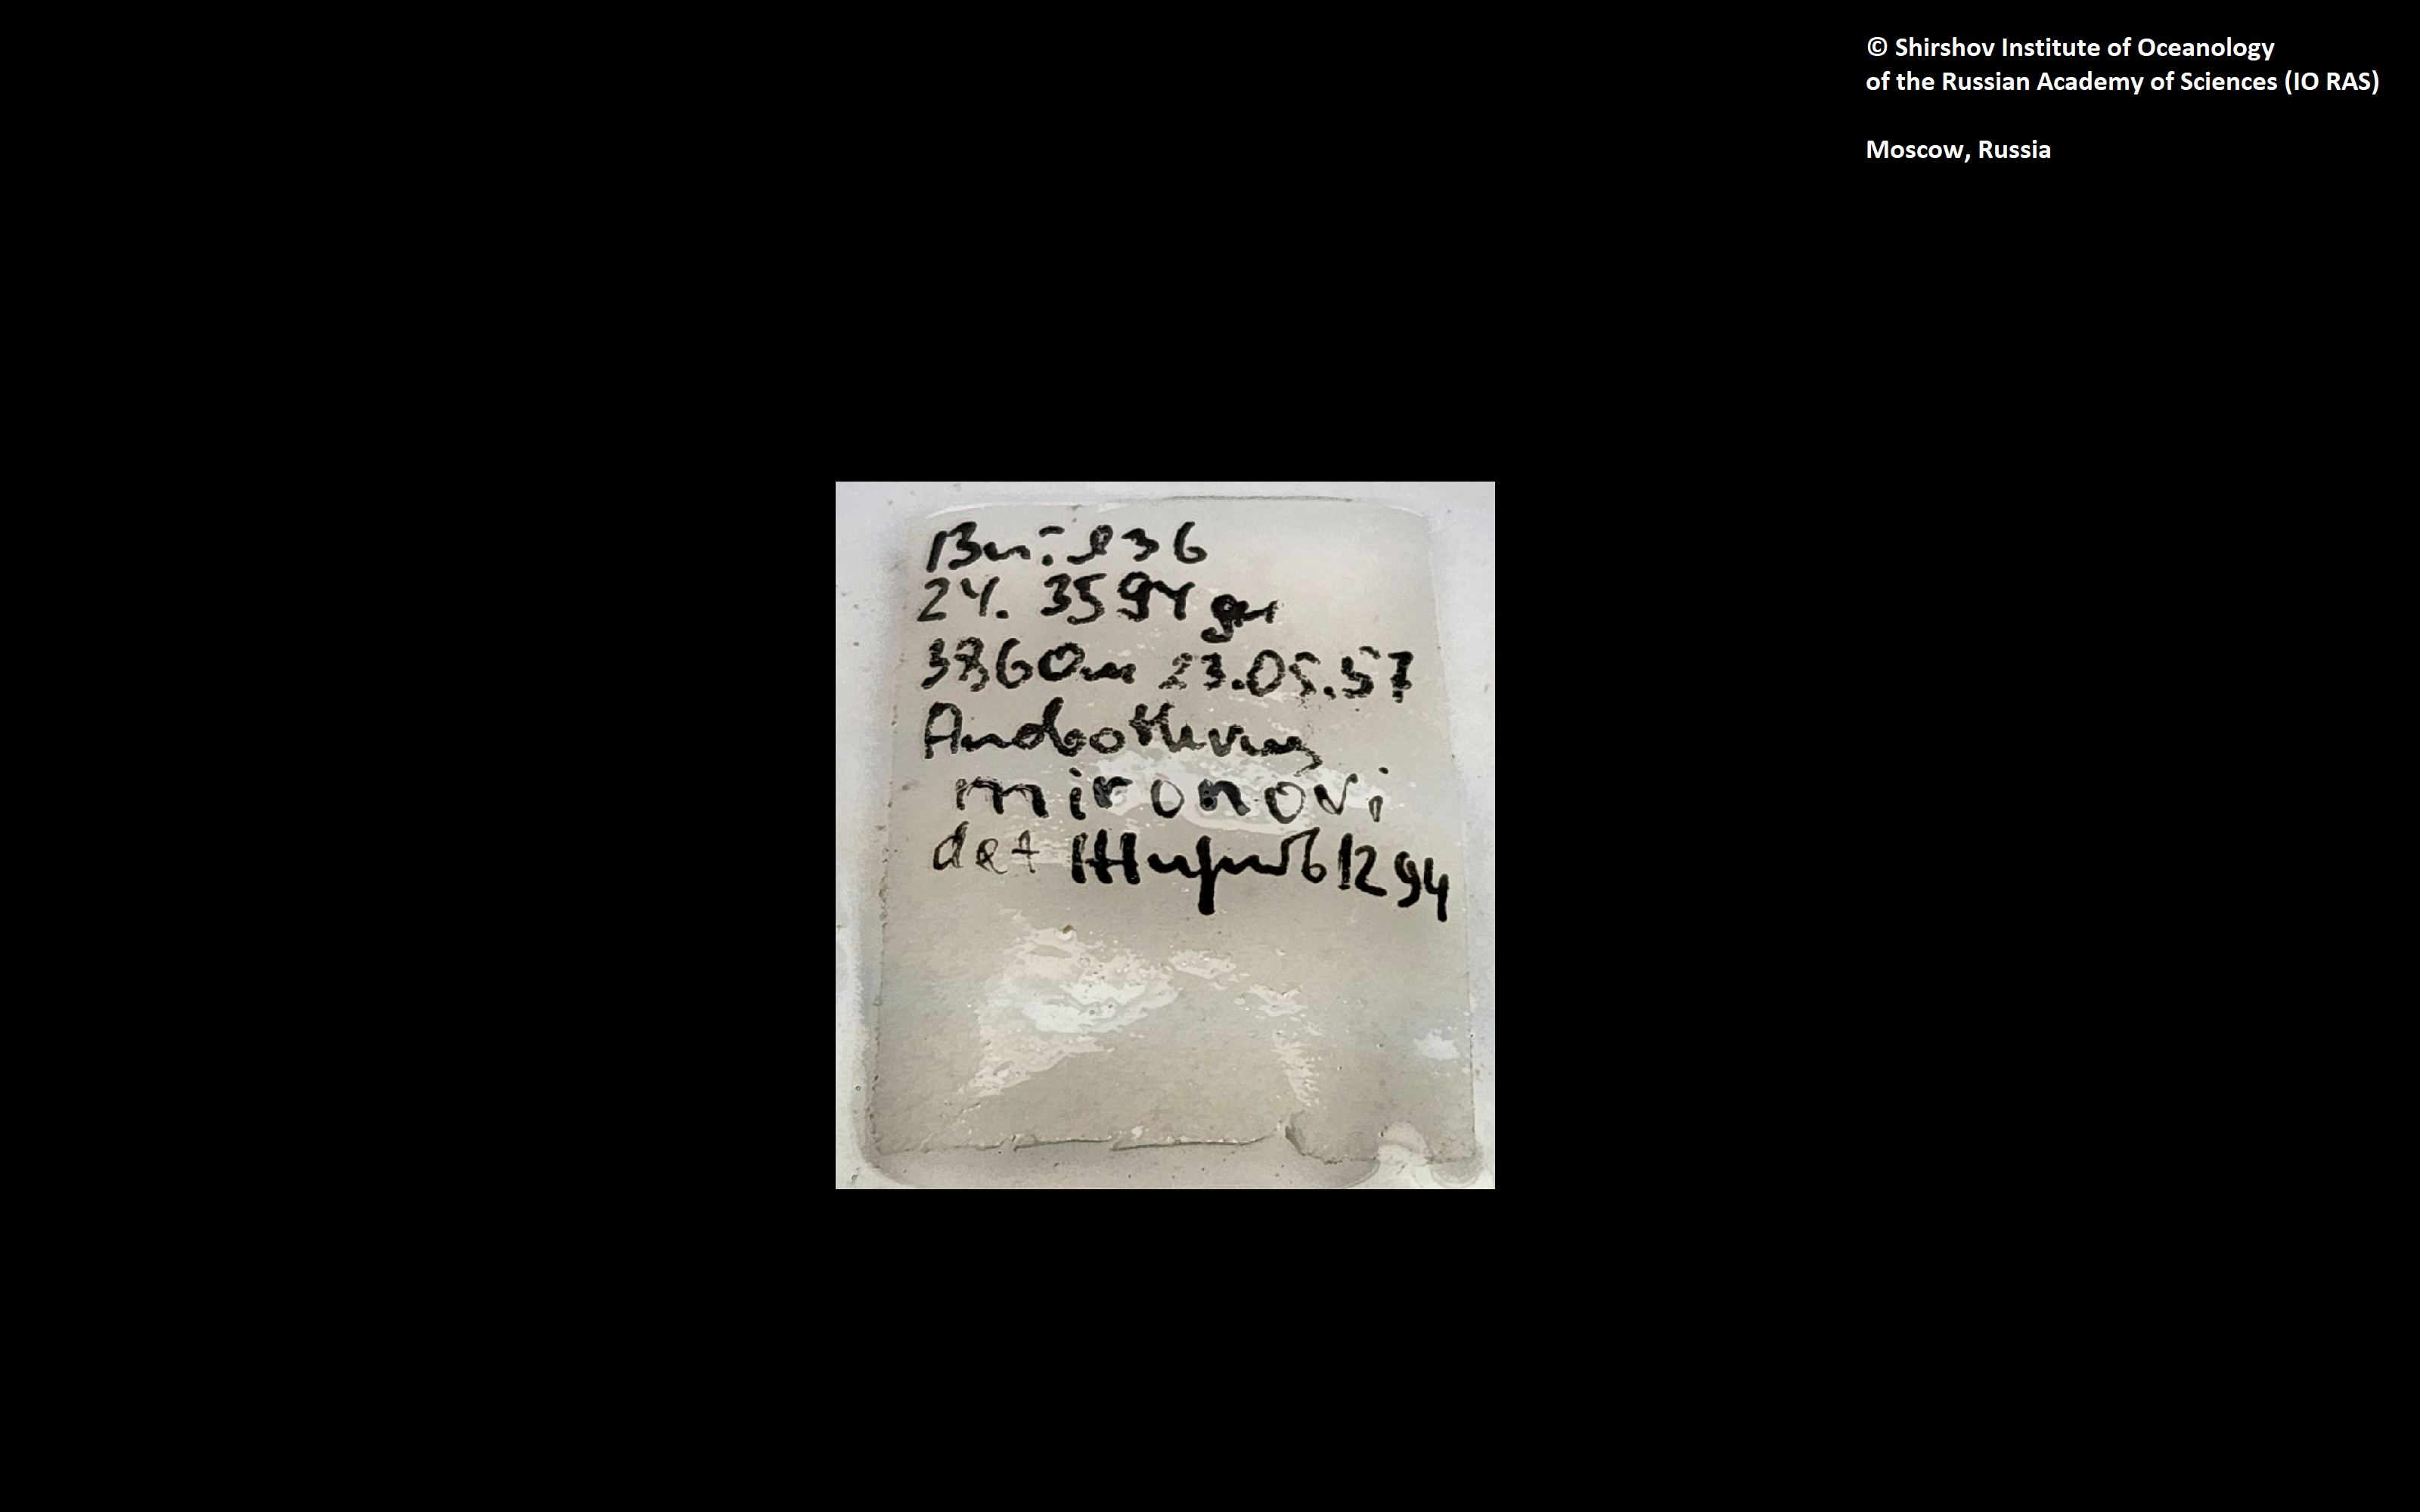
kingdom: Animalia
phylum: Annelida
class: Polychaeta
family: Ampharetidae
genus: Anobothrus
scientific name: Anobothrus mironovi
